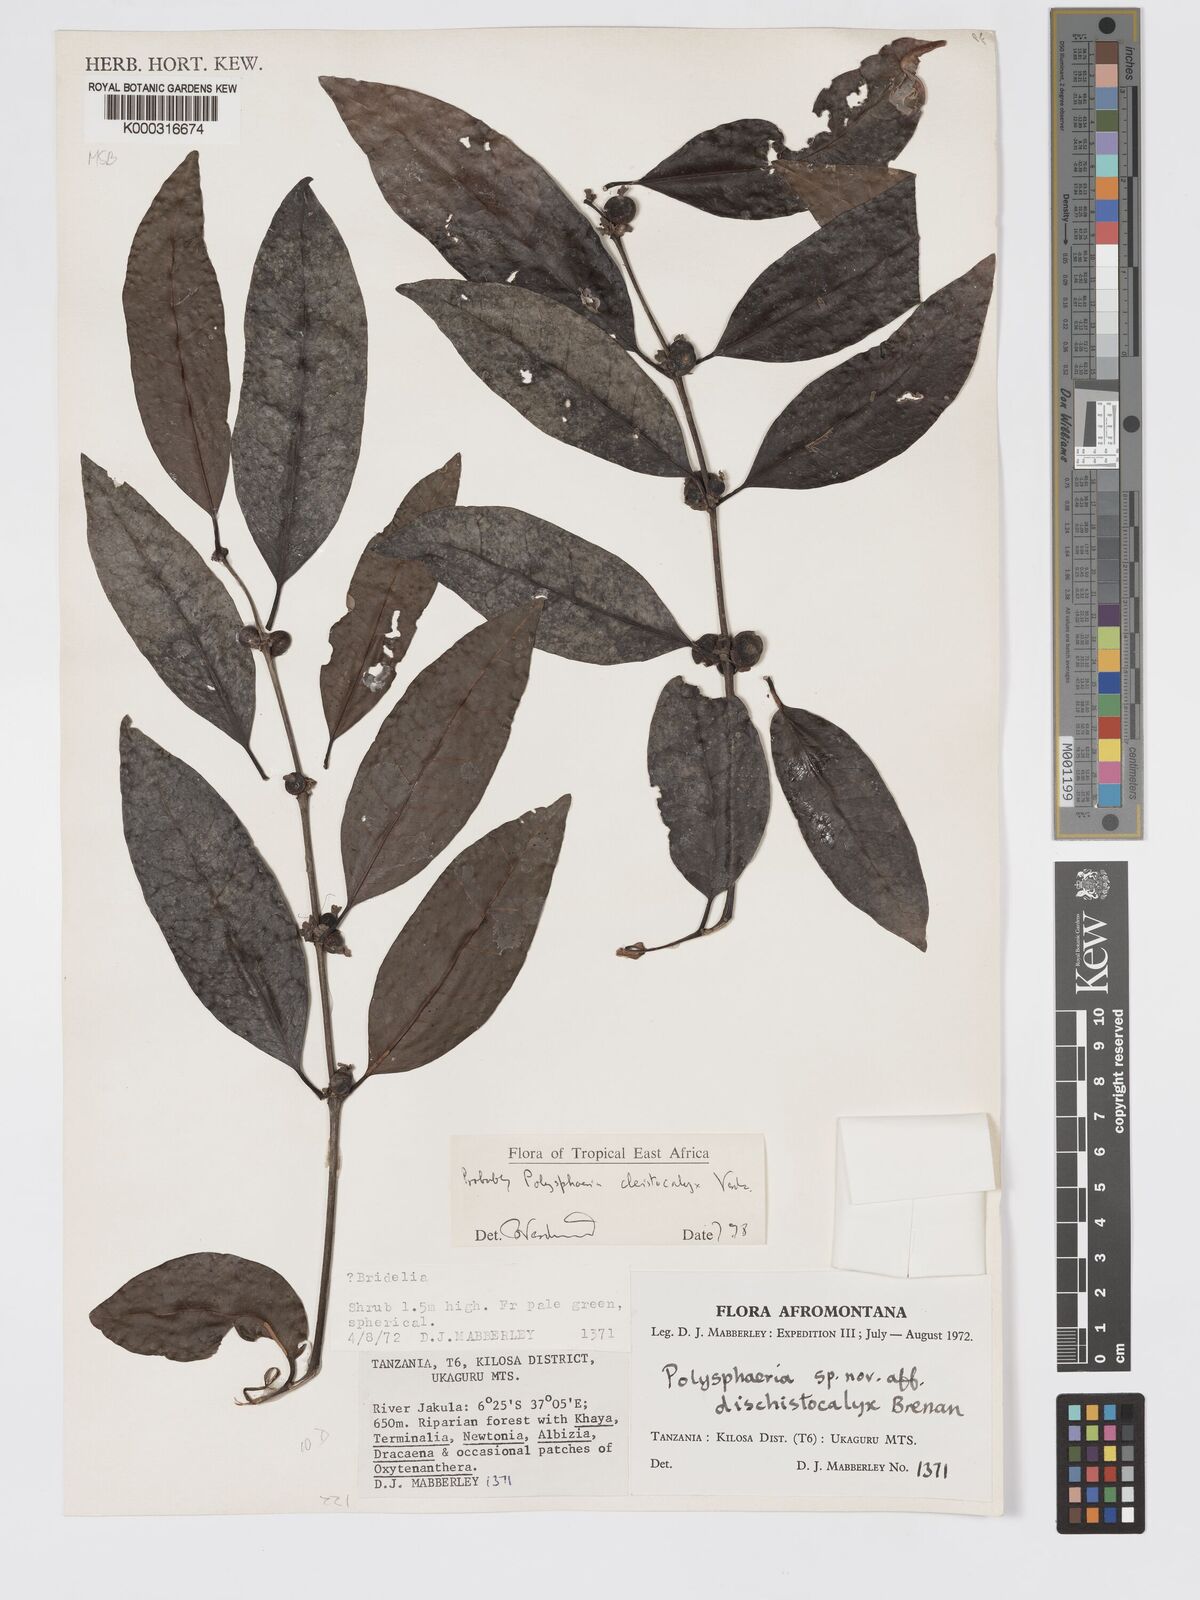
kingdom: Plantae
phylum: Tracheophyta
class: Magnoliopsida
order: Gentianales
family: Rubiaceae
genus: Polysphaeria
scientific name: Polysphaeria cleistocalyx
